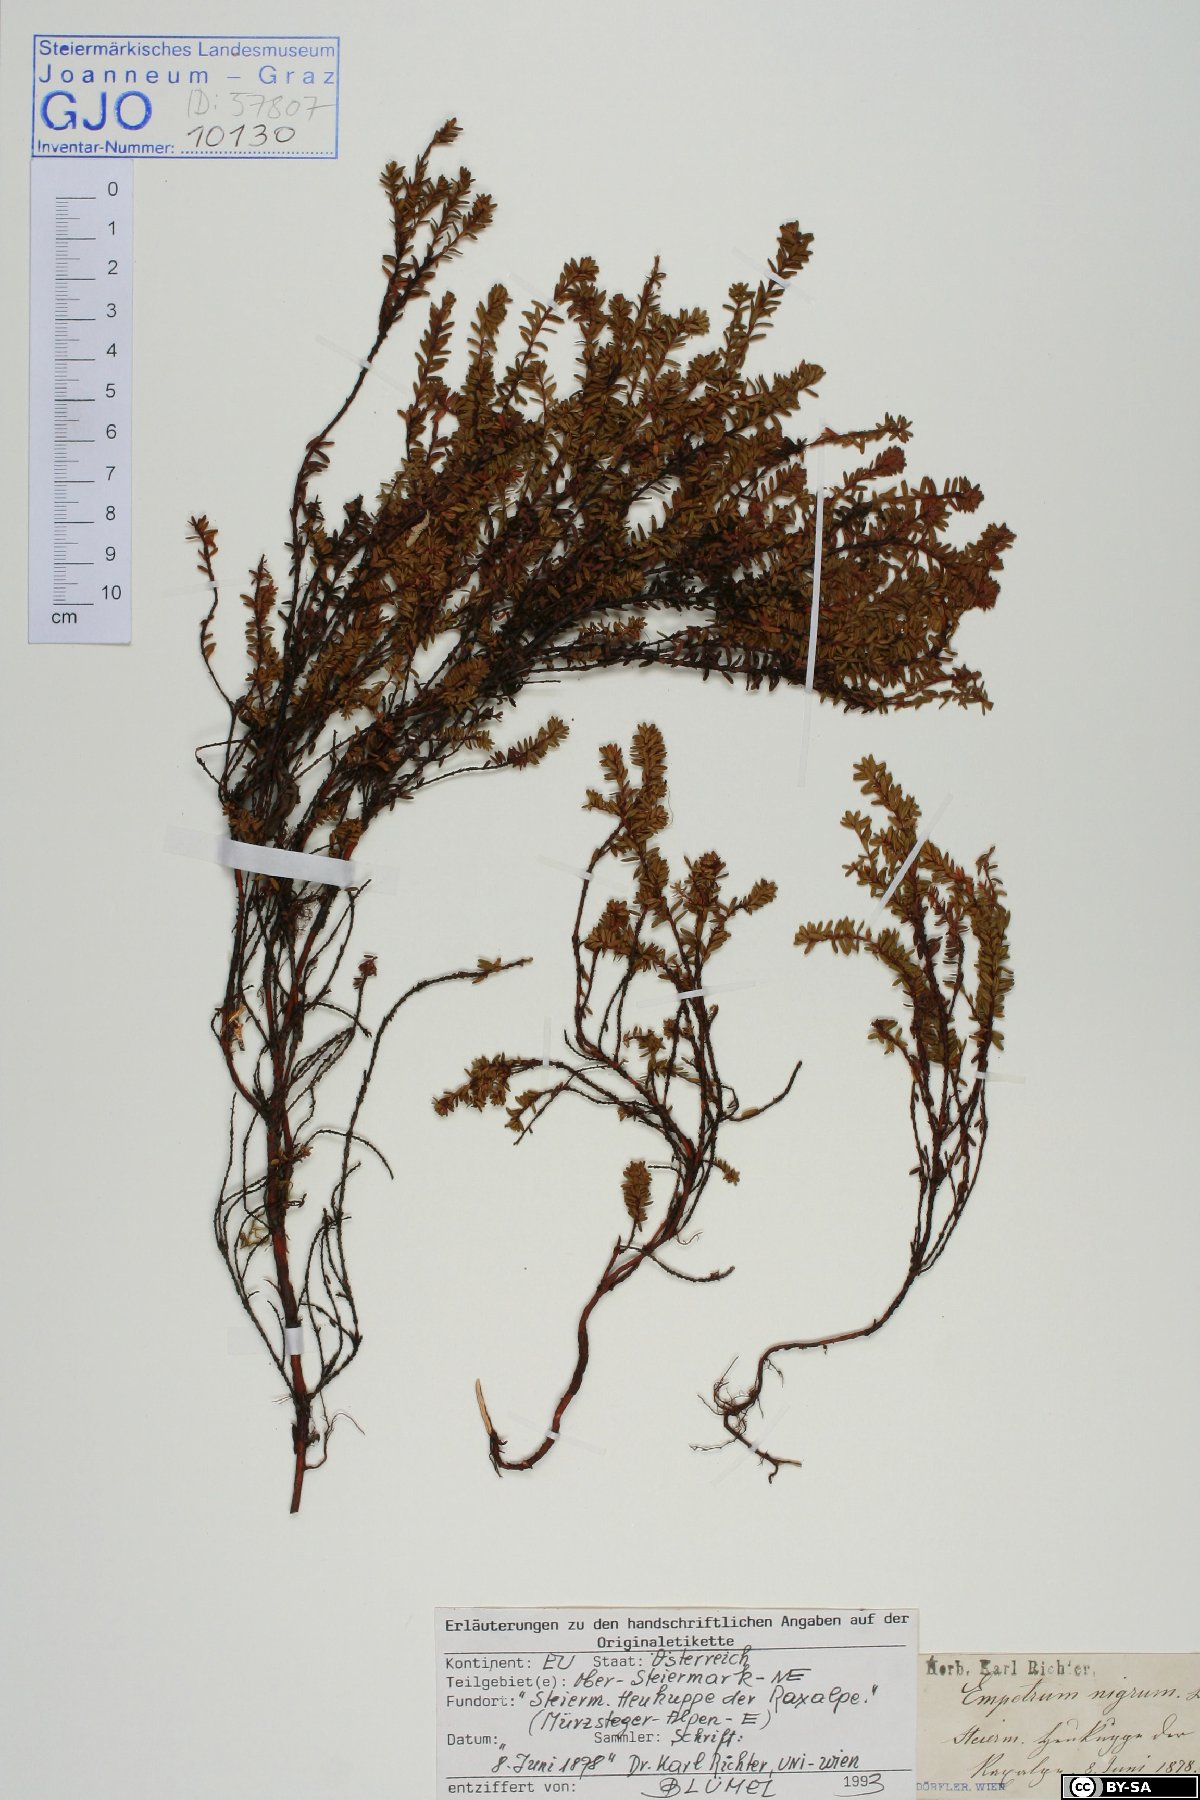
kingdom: Plantae
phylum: Tracheophyta
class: Magnoliopsida
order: Ericales
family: Ericaceae
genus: Empetrum
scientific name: Empetrum nigrum
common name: Black crowberry
